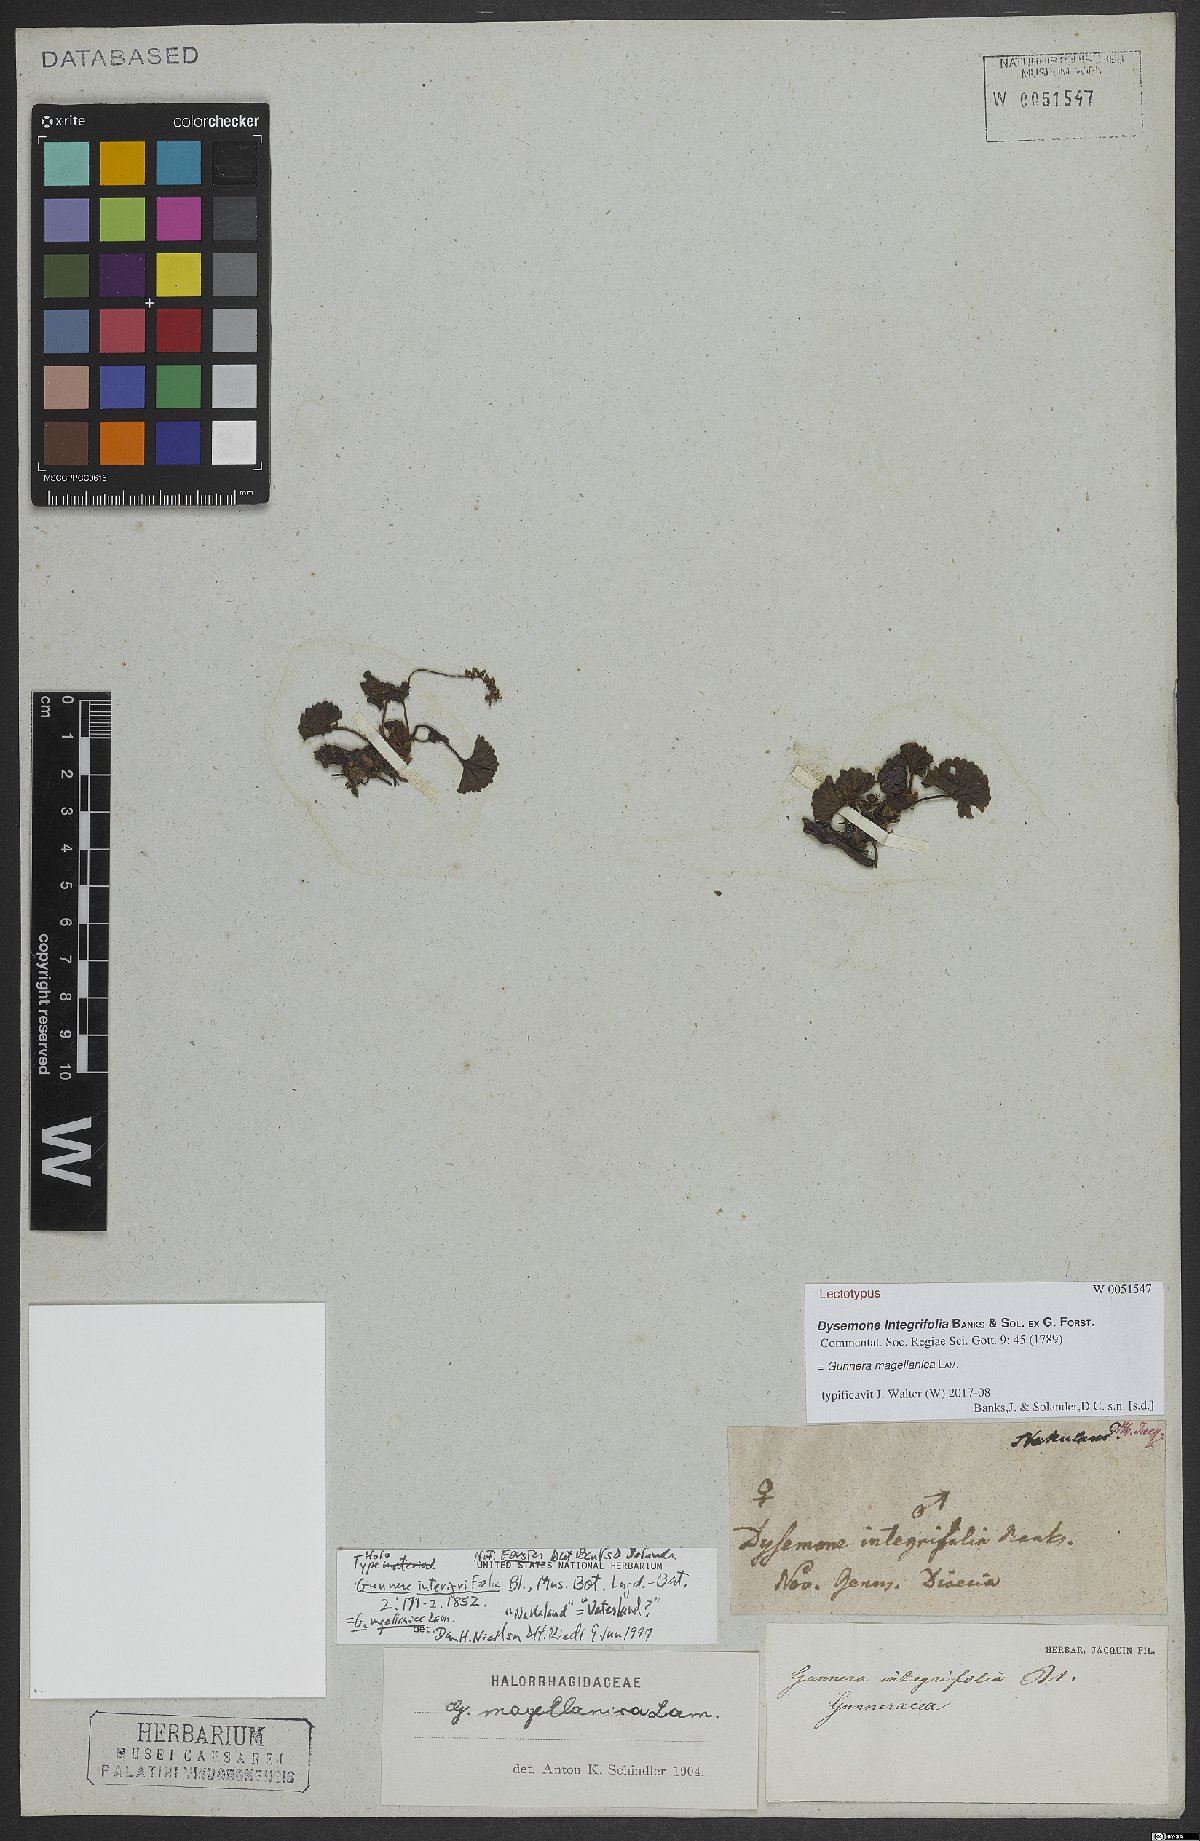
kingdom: Plantae
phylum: Tracheophyta
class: Magnoliopsida
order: Gunnerales
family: Gunneraceae
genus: Gunnera
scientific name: Gunnera magellanica
